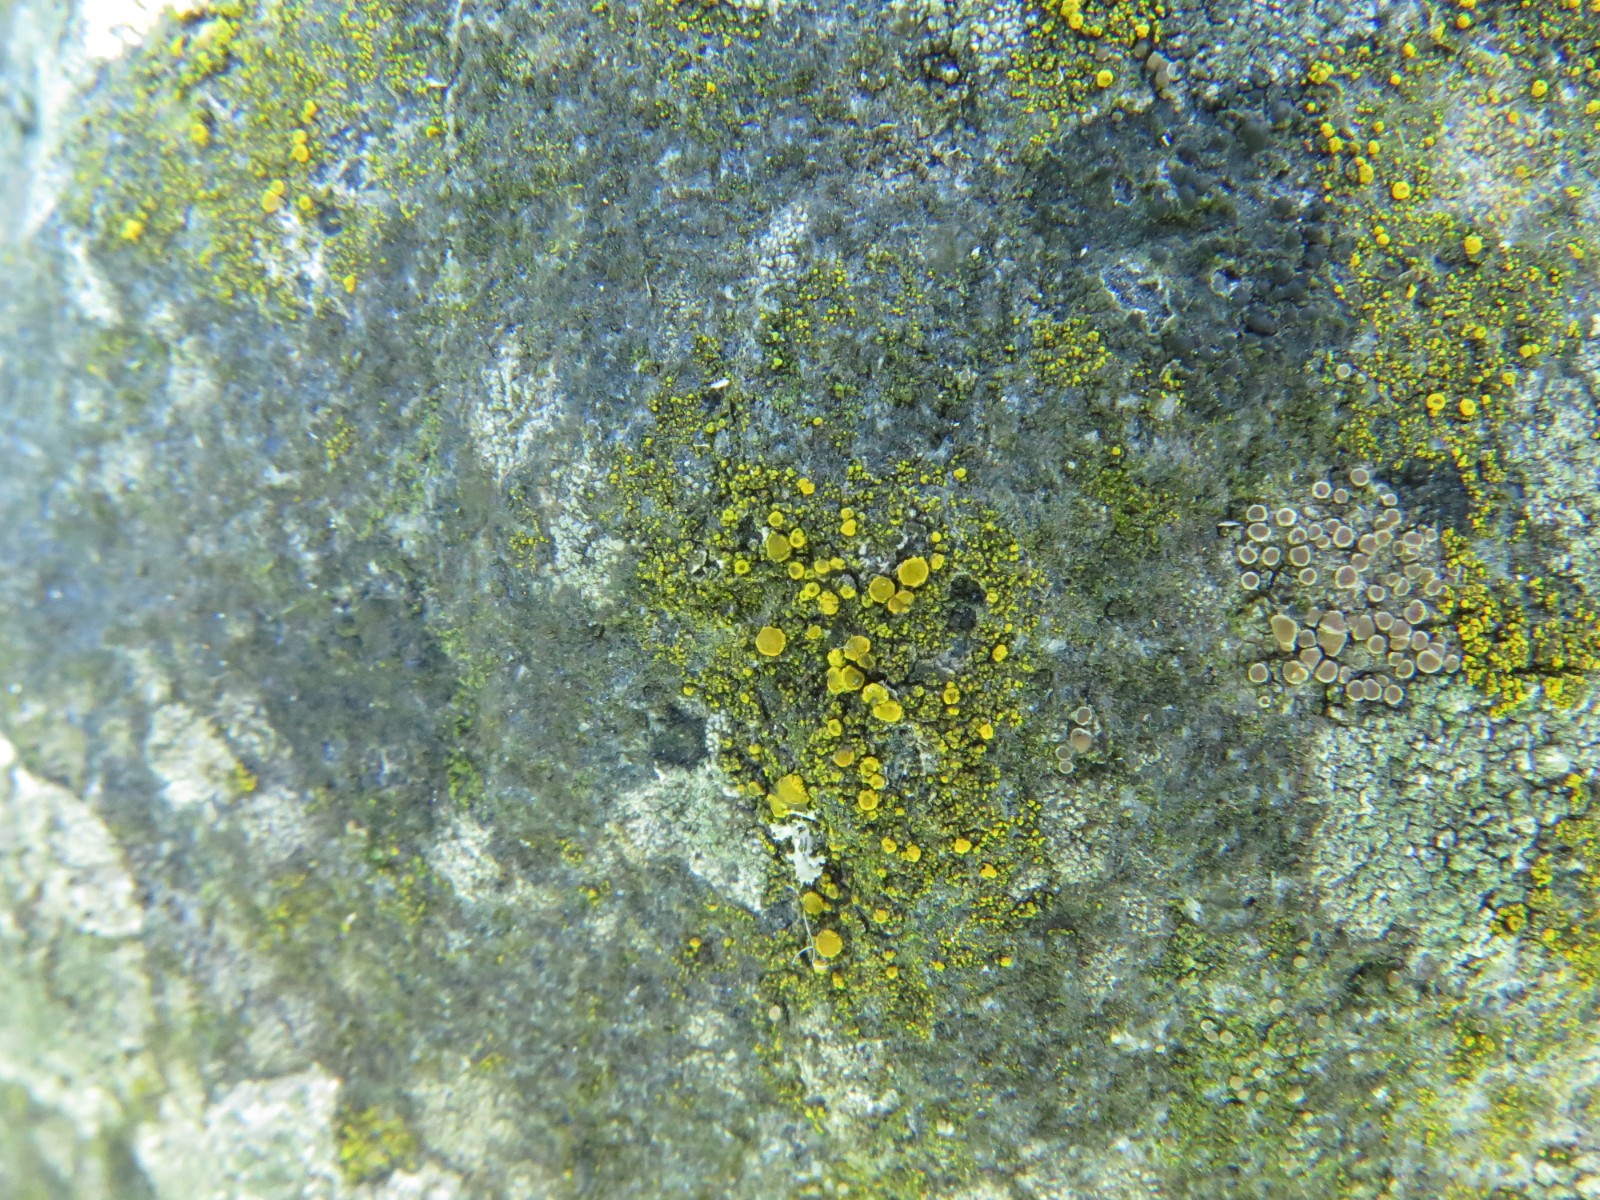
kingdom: Fungi
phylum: Ascomycota
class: Candelariomycetes
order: Candelariales
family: Candelariaceae
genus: Candelariella
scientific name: Candelariella vitellina
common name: almindelig æggeblommelav
